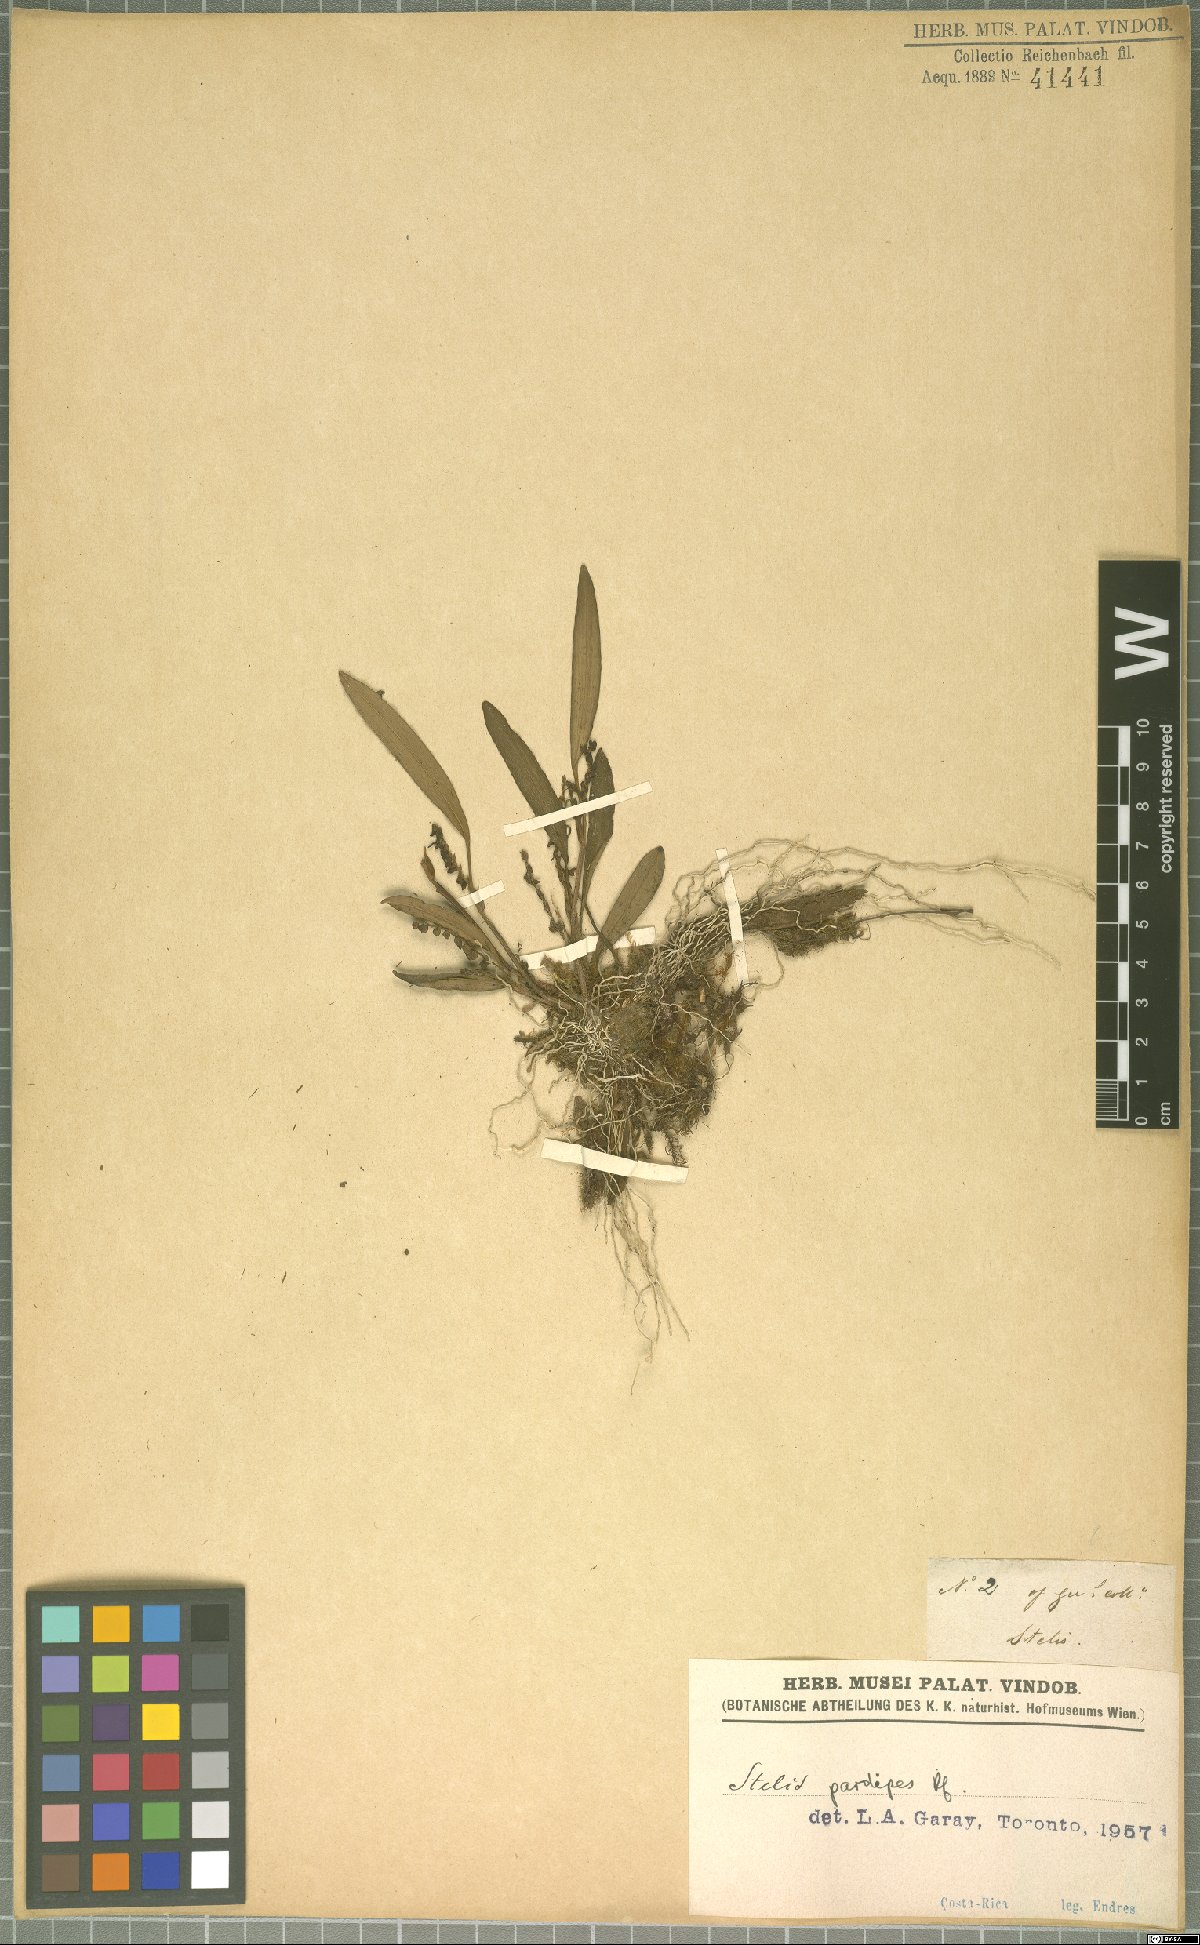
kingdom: Plantae
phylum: Tracheophyta
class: Liliopsida
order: Asparagales
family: Orchidaceae
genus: Stelis
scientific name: Stelis pardipes
